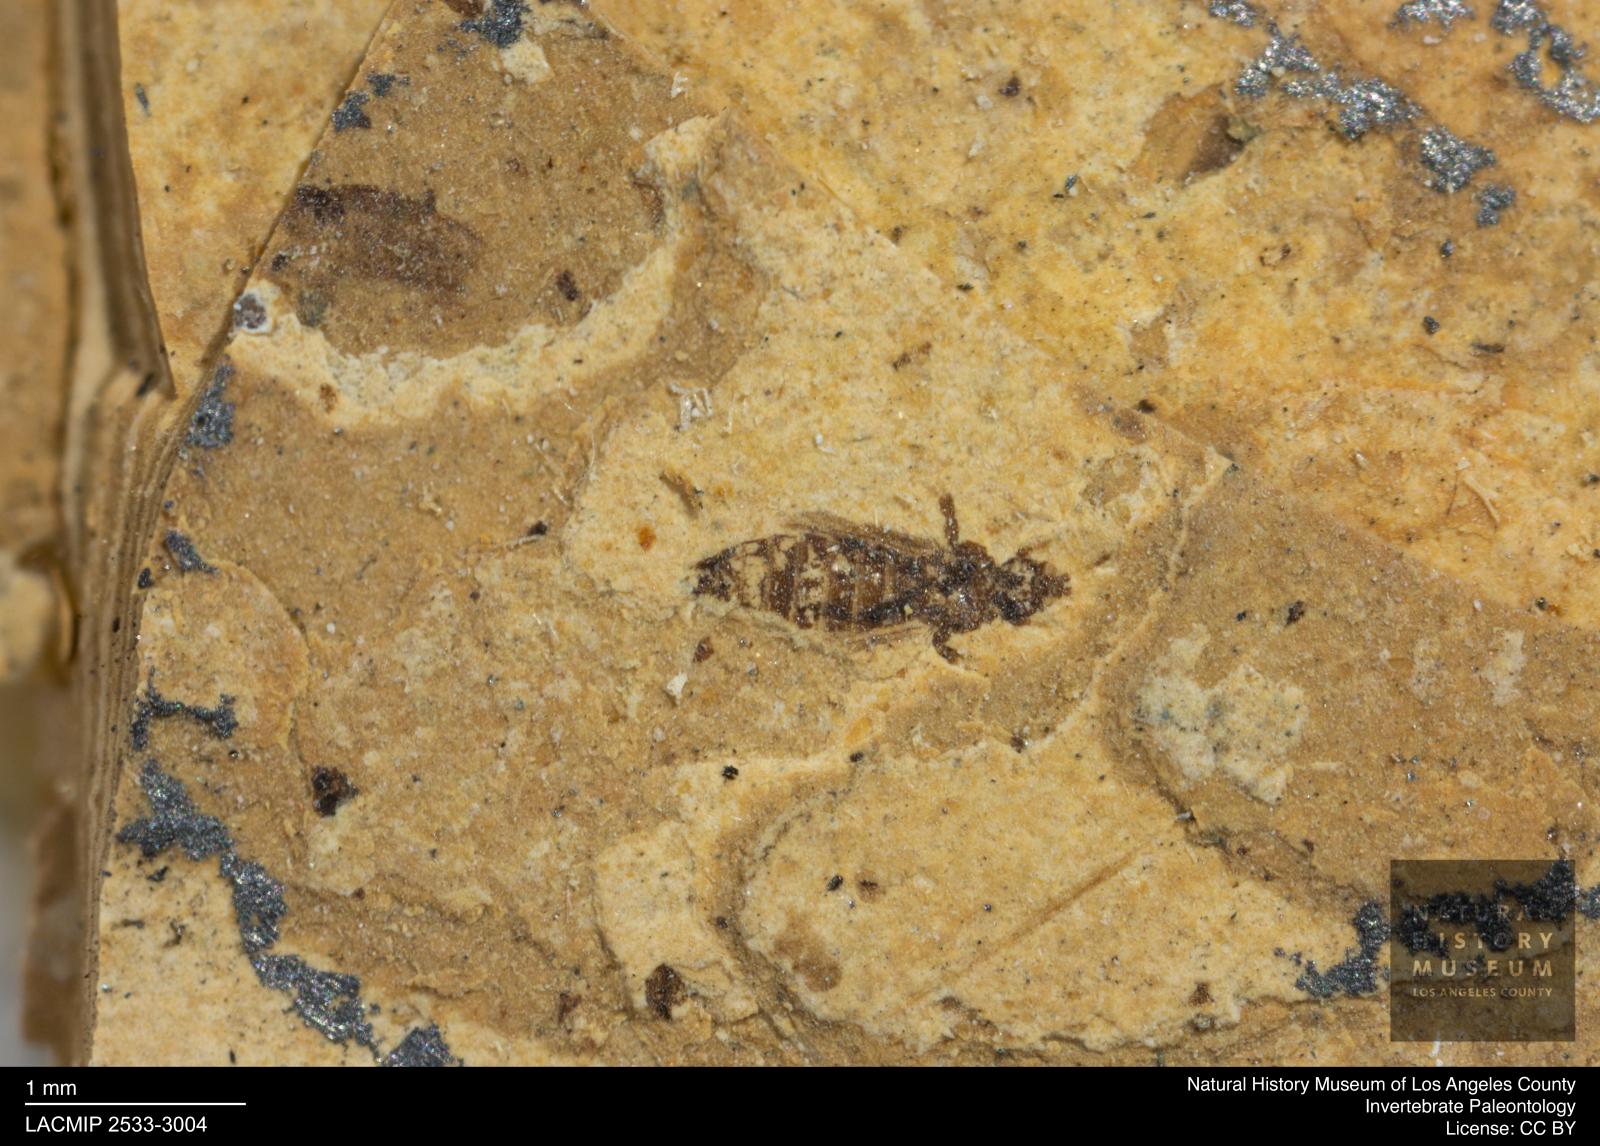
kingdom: Animalia
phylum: Arthropoda
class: Insecta
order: Thysanoptera
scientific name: Thysanoptera
